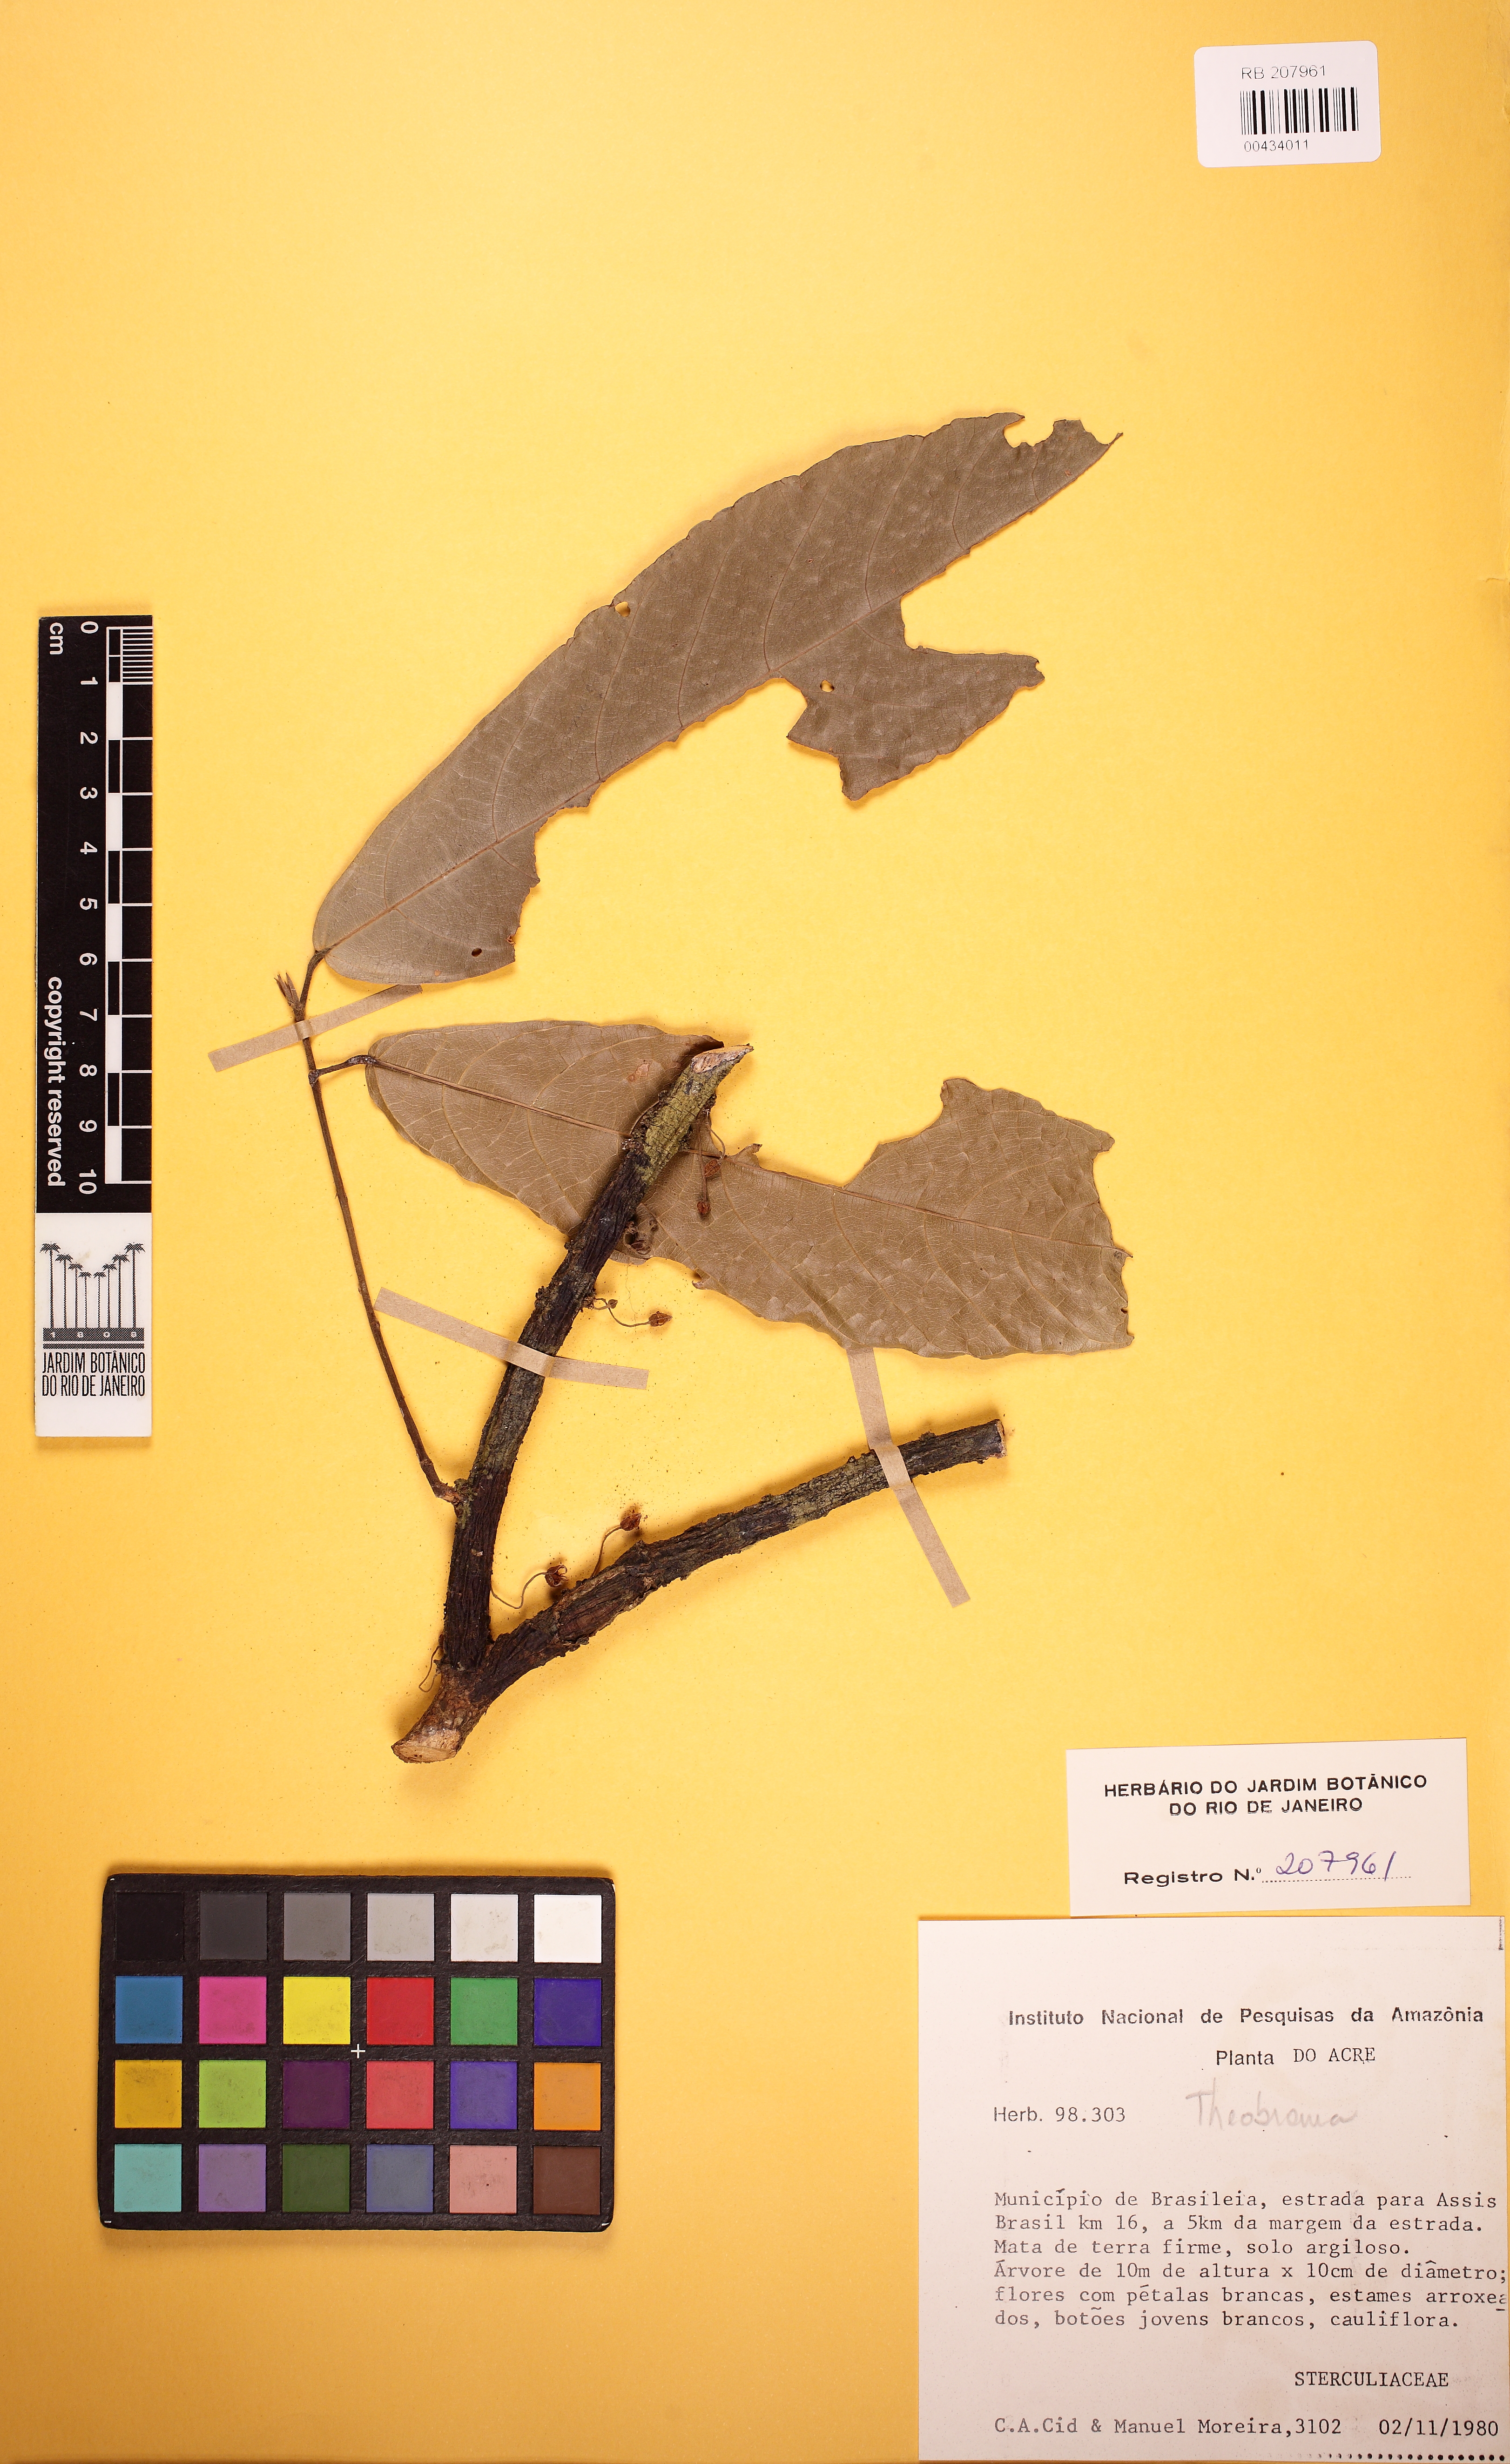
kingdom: Plantae
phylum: Tracheophyta
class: Magnoliopsida
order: Malvales
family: Malvaceae
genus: Theobroma
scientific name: Theobroma cacao
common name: Cocoa
